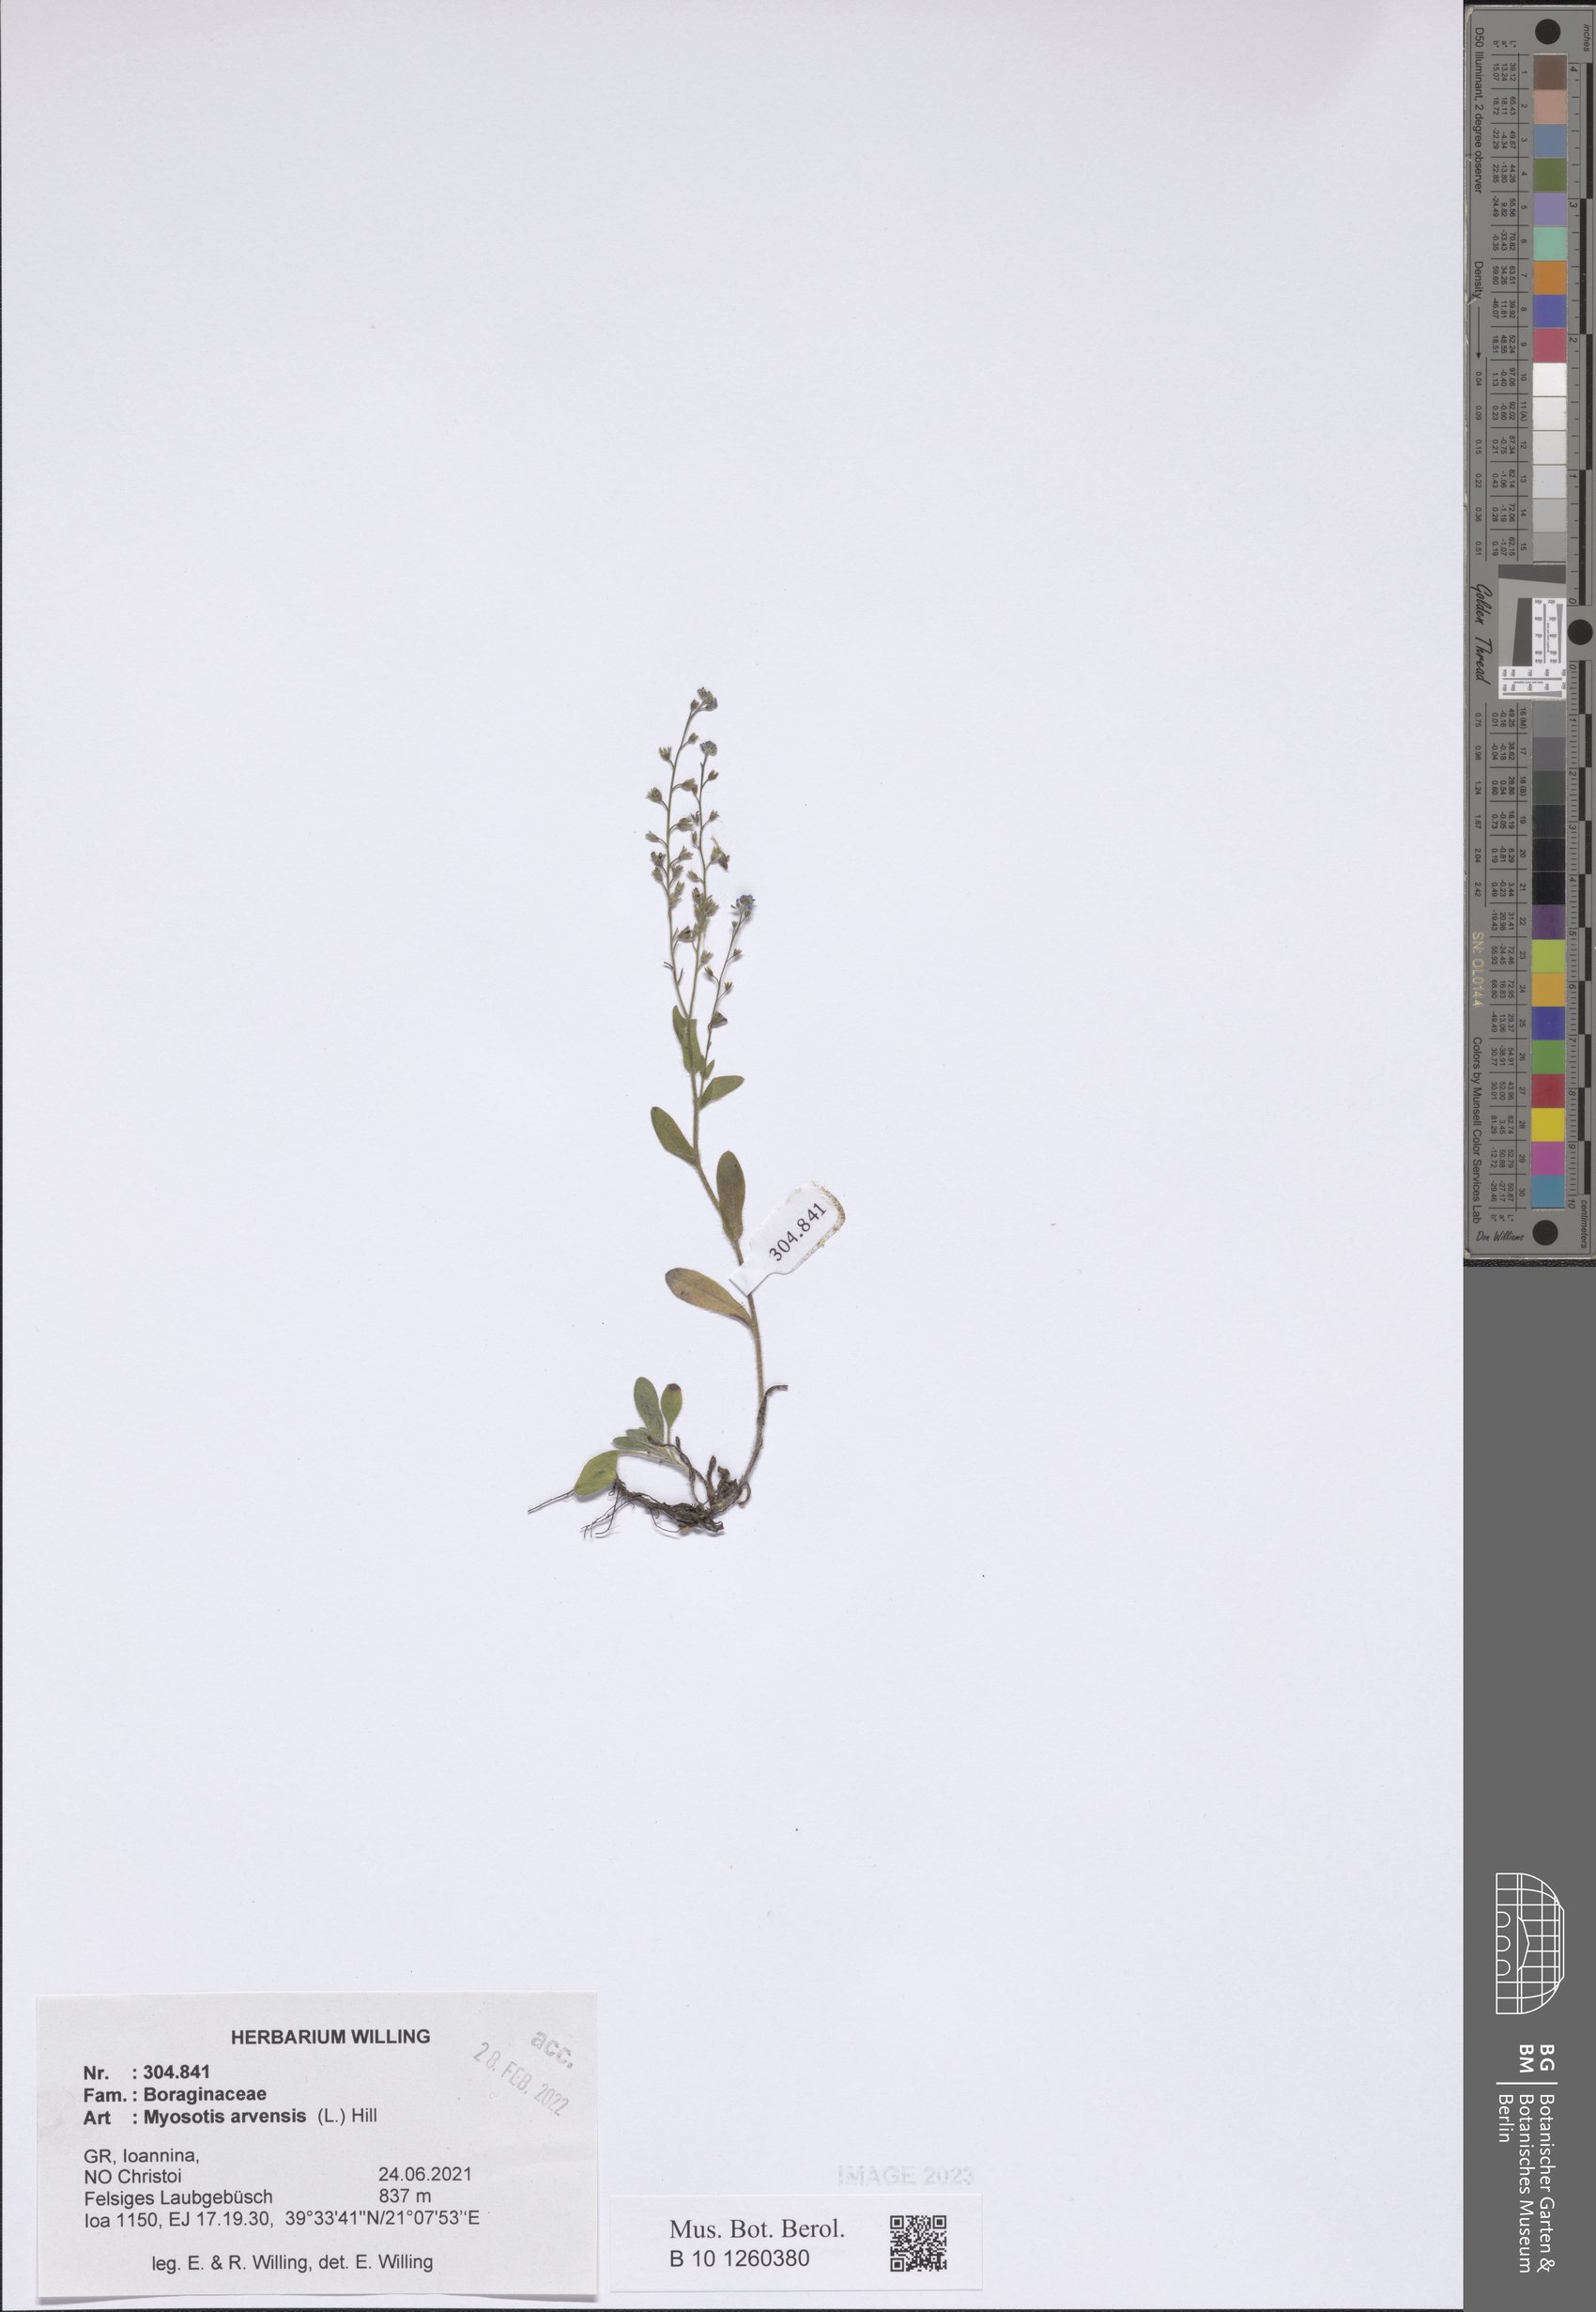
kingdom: Plantae
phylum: Tracheophyta
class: Magnoliopsida
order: Boraginales
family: Boraginaceae
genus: Myosotis
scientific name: Myosotis arvensis
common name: Field forget-me-not
